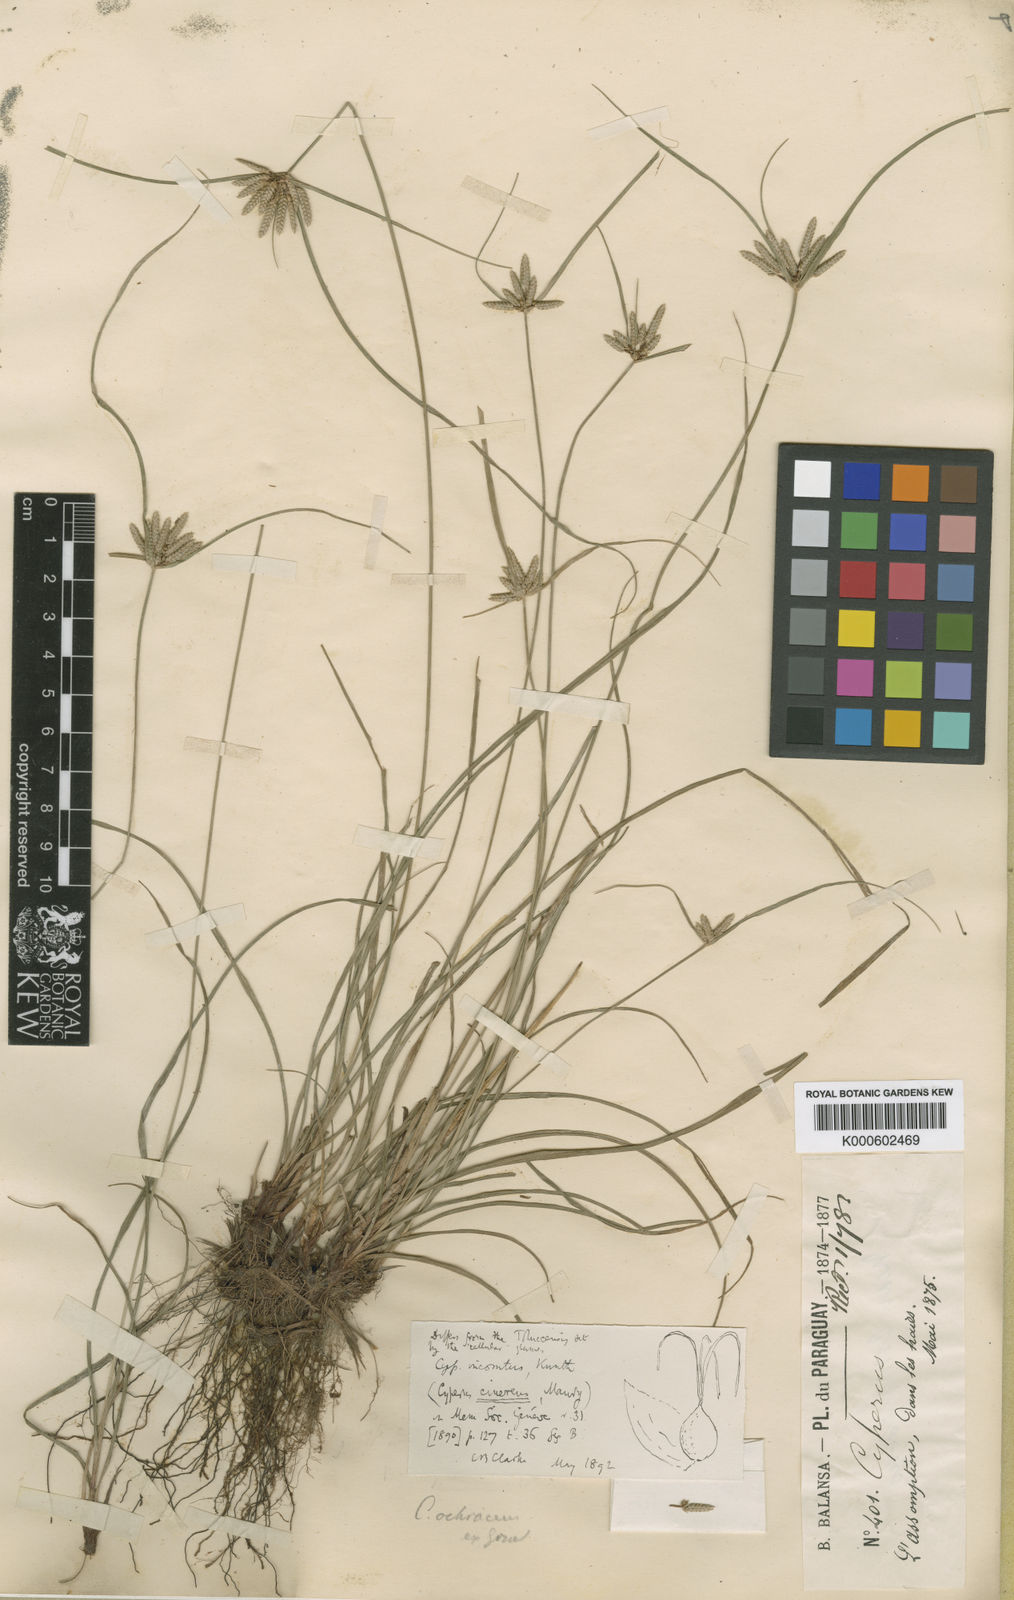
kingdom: Plantae
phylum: Tracheophyta
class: Liliopsida
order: Poales
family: Cyperaceae
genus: Cyperus
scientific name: Cyperus incomtus
